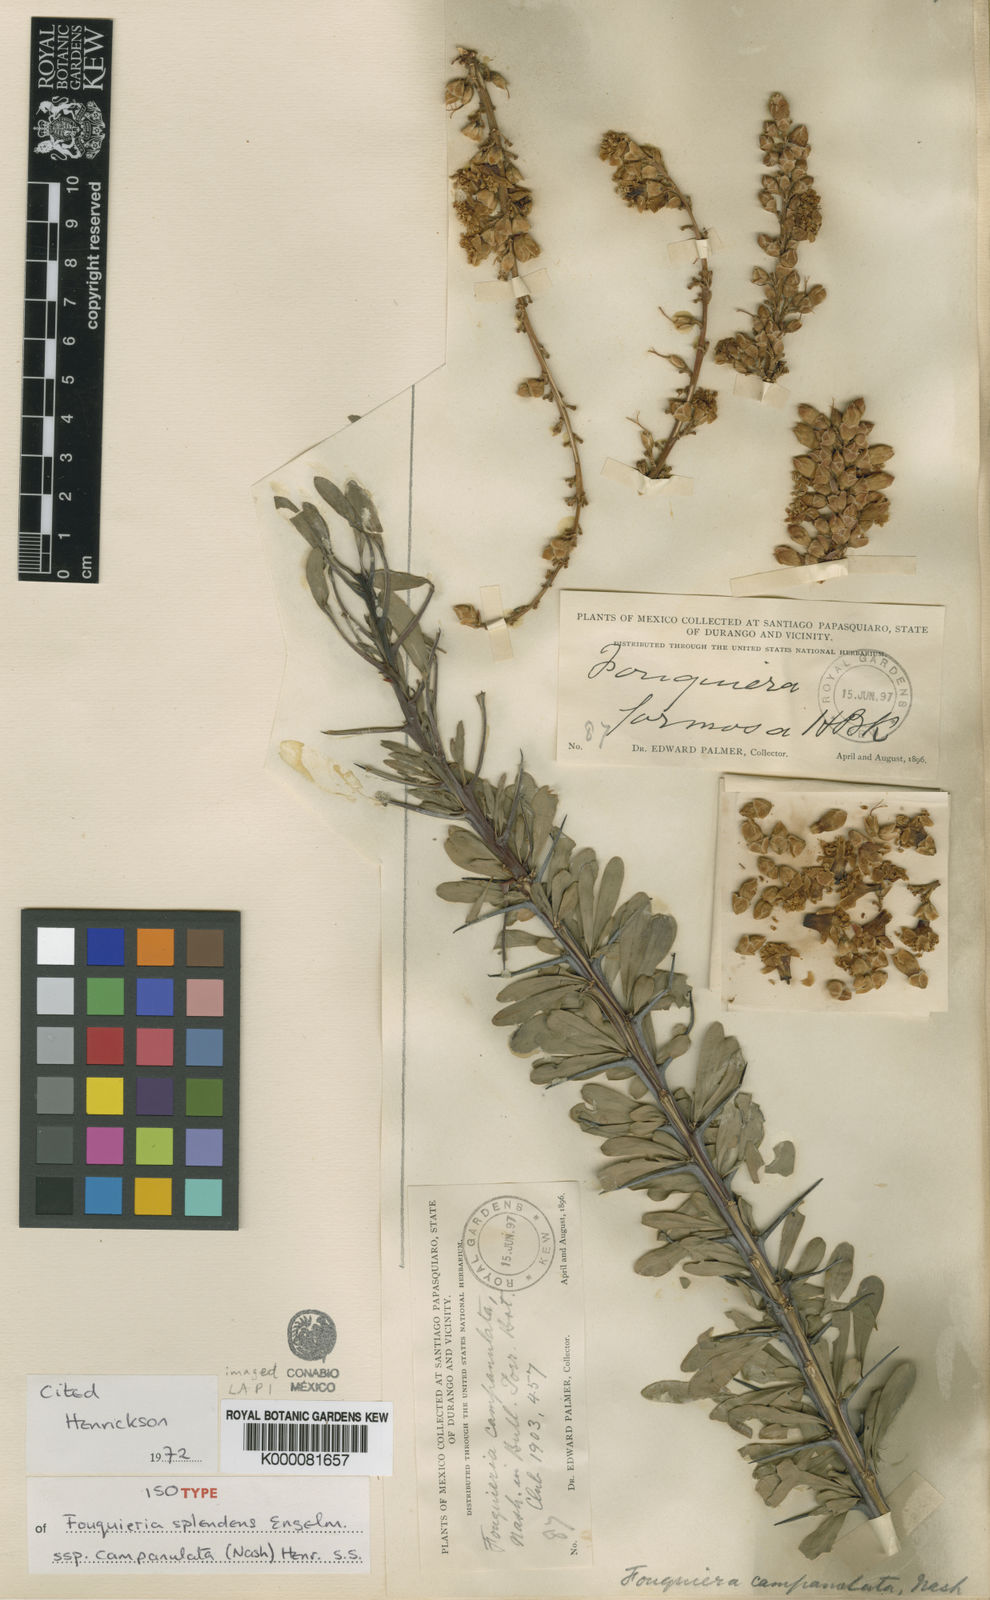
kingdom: Plantae
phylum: Tracheophyta
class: Magnoliopsida
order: Ericales
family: Fouquieriaceae
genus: Fouquieria
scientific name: Fouquieria splendens
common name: Vine-cactus
